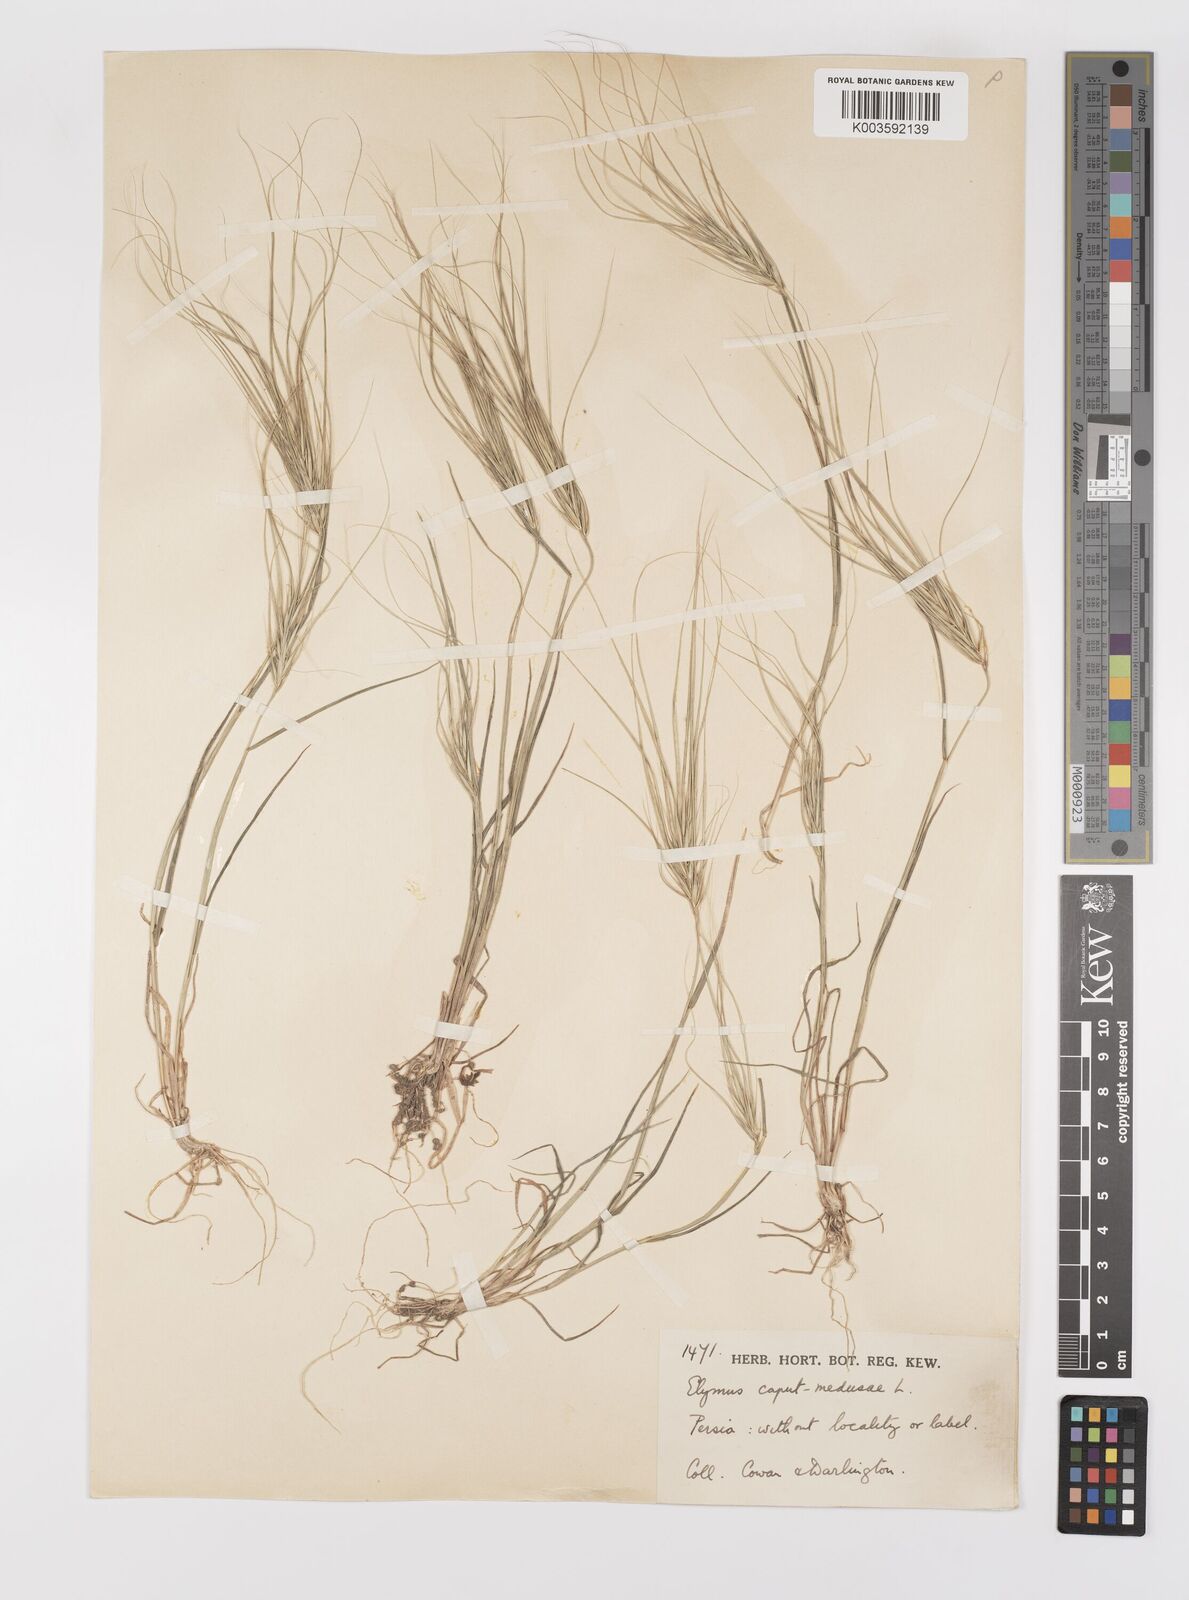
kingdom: Plantae
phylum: Tracheophyta
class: Liliopsida
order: Poales
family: Poaceae
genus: Taeniatherum
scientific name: Taeniatherum caput-medusae
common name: Medusahead
